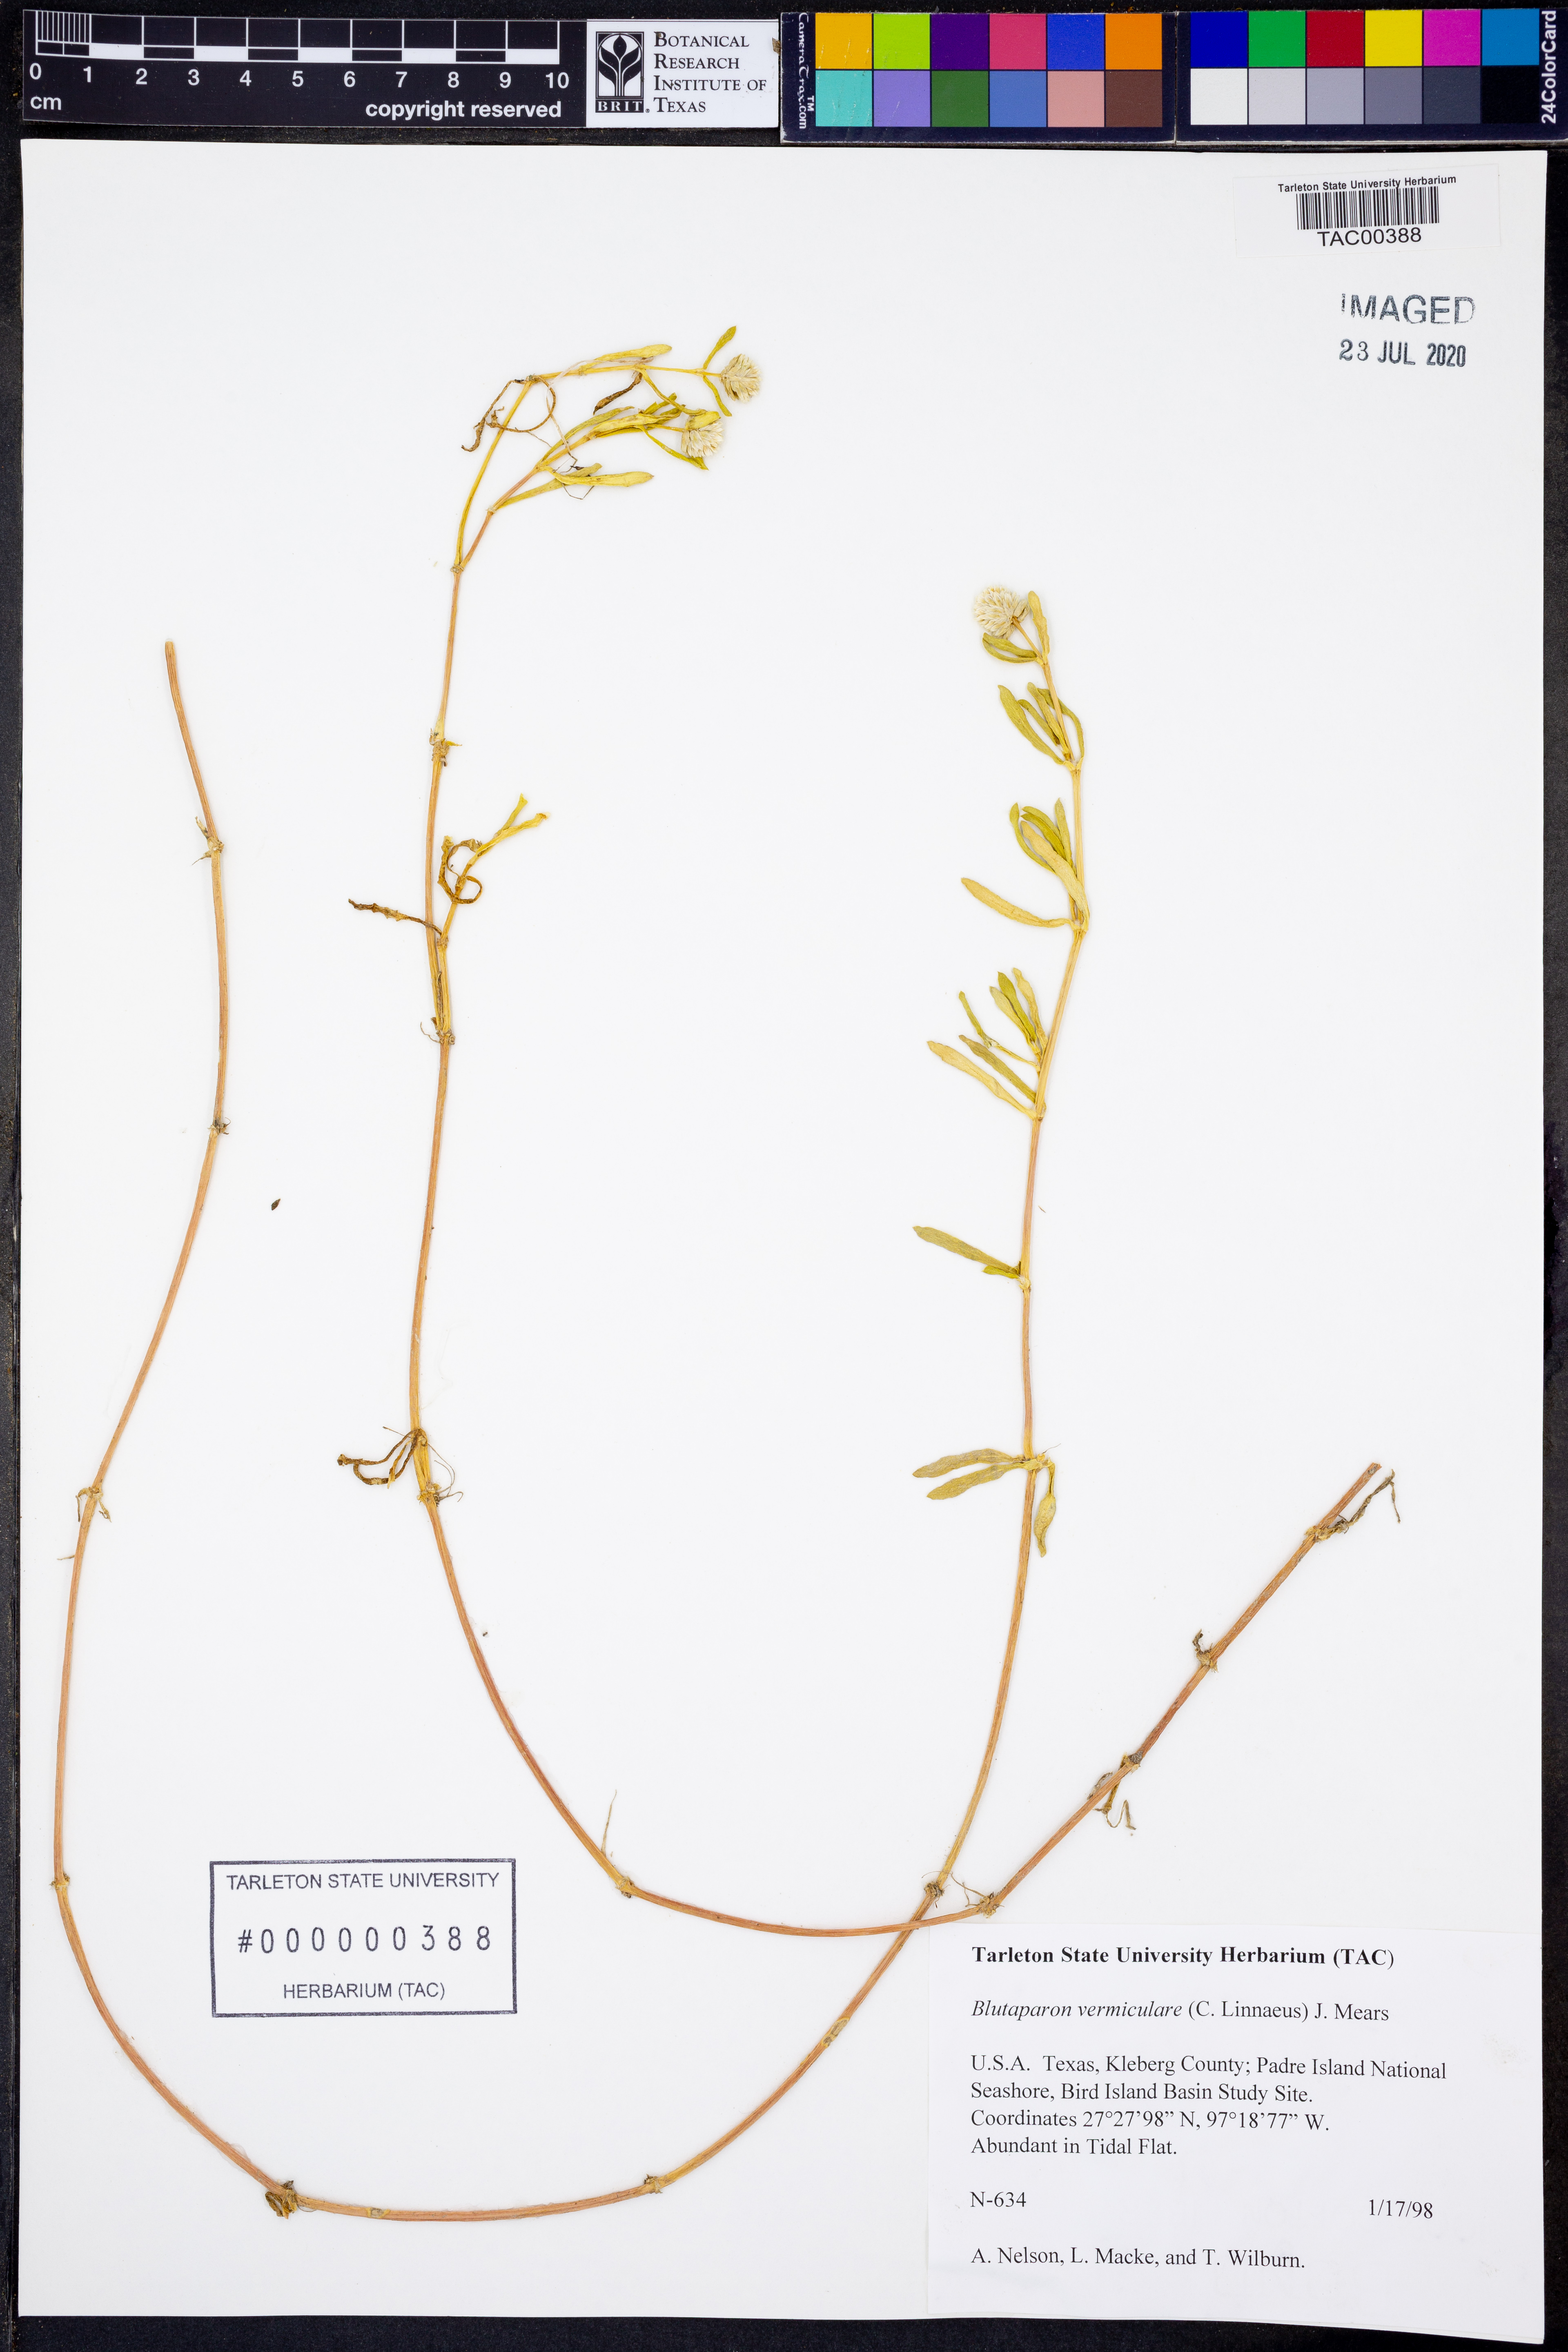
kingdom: Plantae
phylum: Tracheophyta
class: Magnoliopsida
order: Caryophyllales
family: Amaranthaceae
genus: Gomphrena
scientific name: Gomphrena vermicularis
